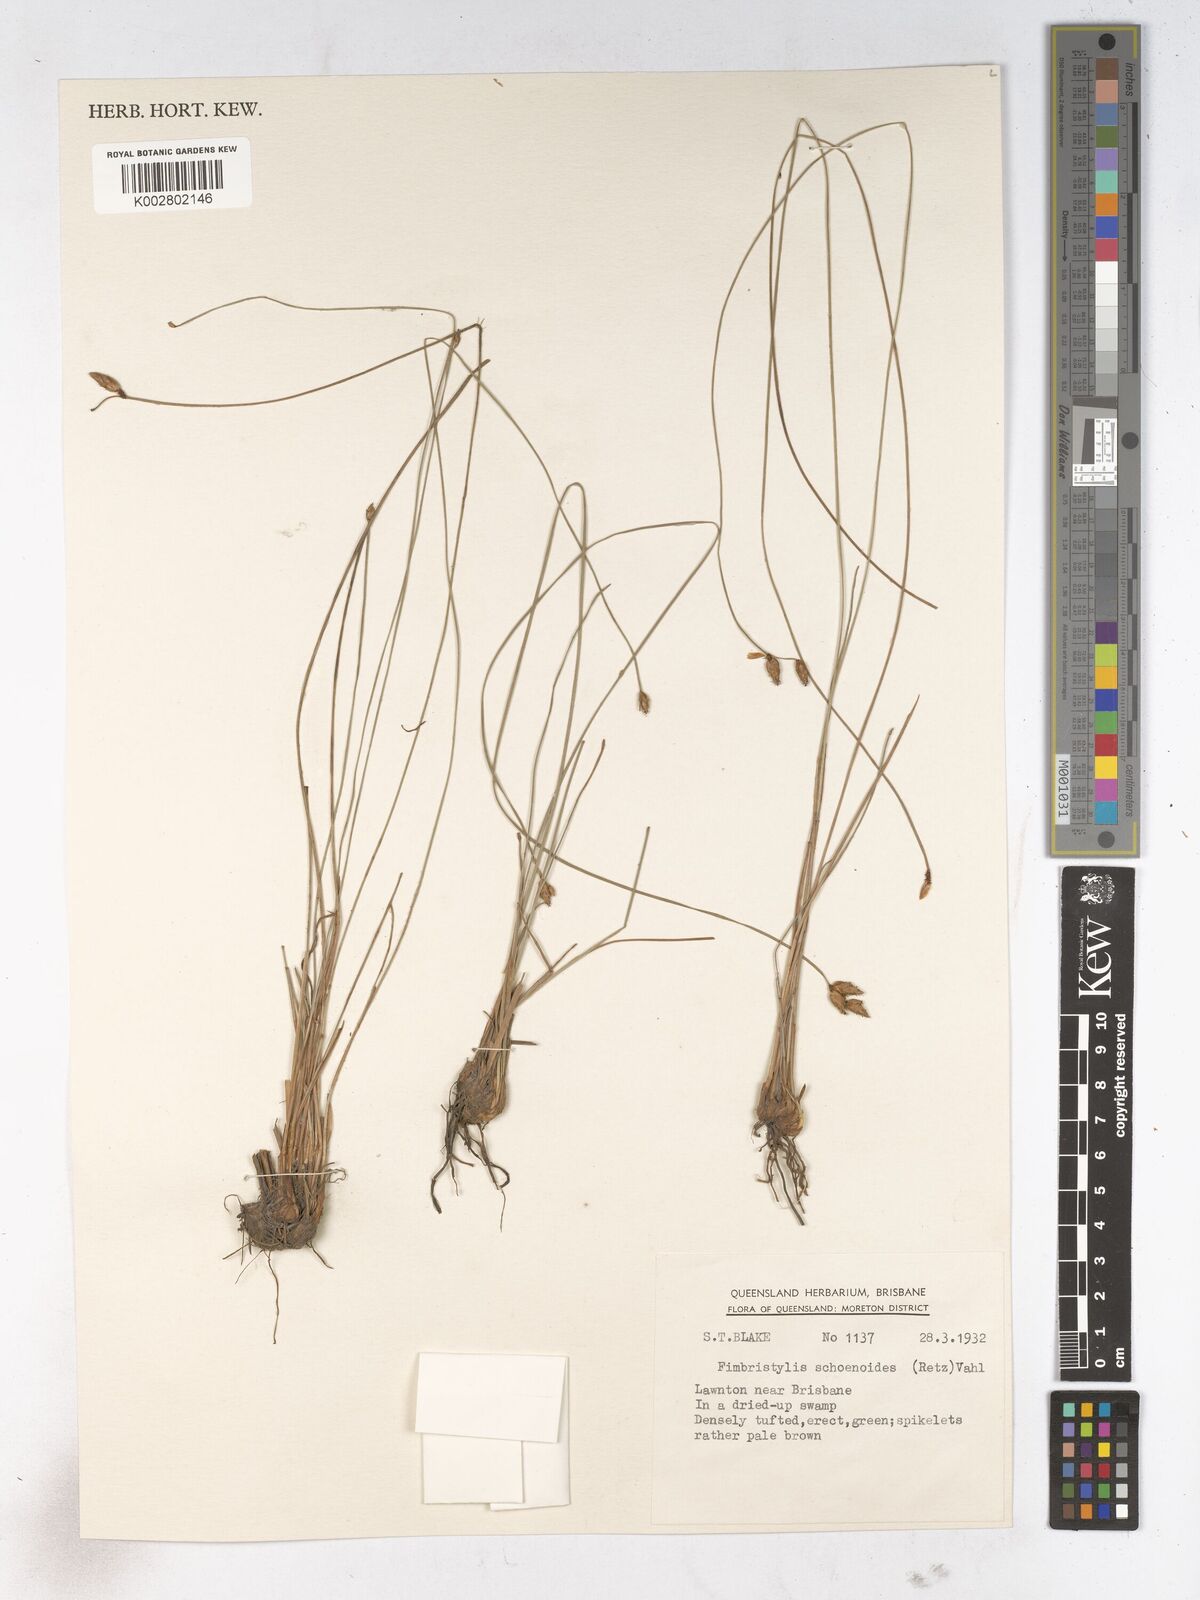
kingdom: Plantae
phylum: Tracheophyta
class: Liliopsida
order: Poales
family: Cyperaceae
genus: Fimbristylis
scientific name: Fimbristylis schoenoides
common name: Ditch fimbry
